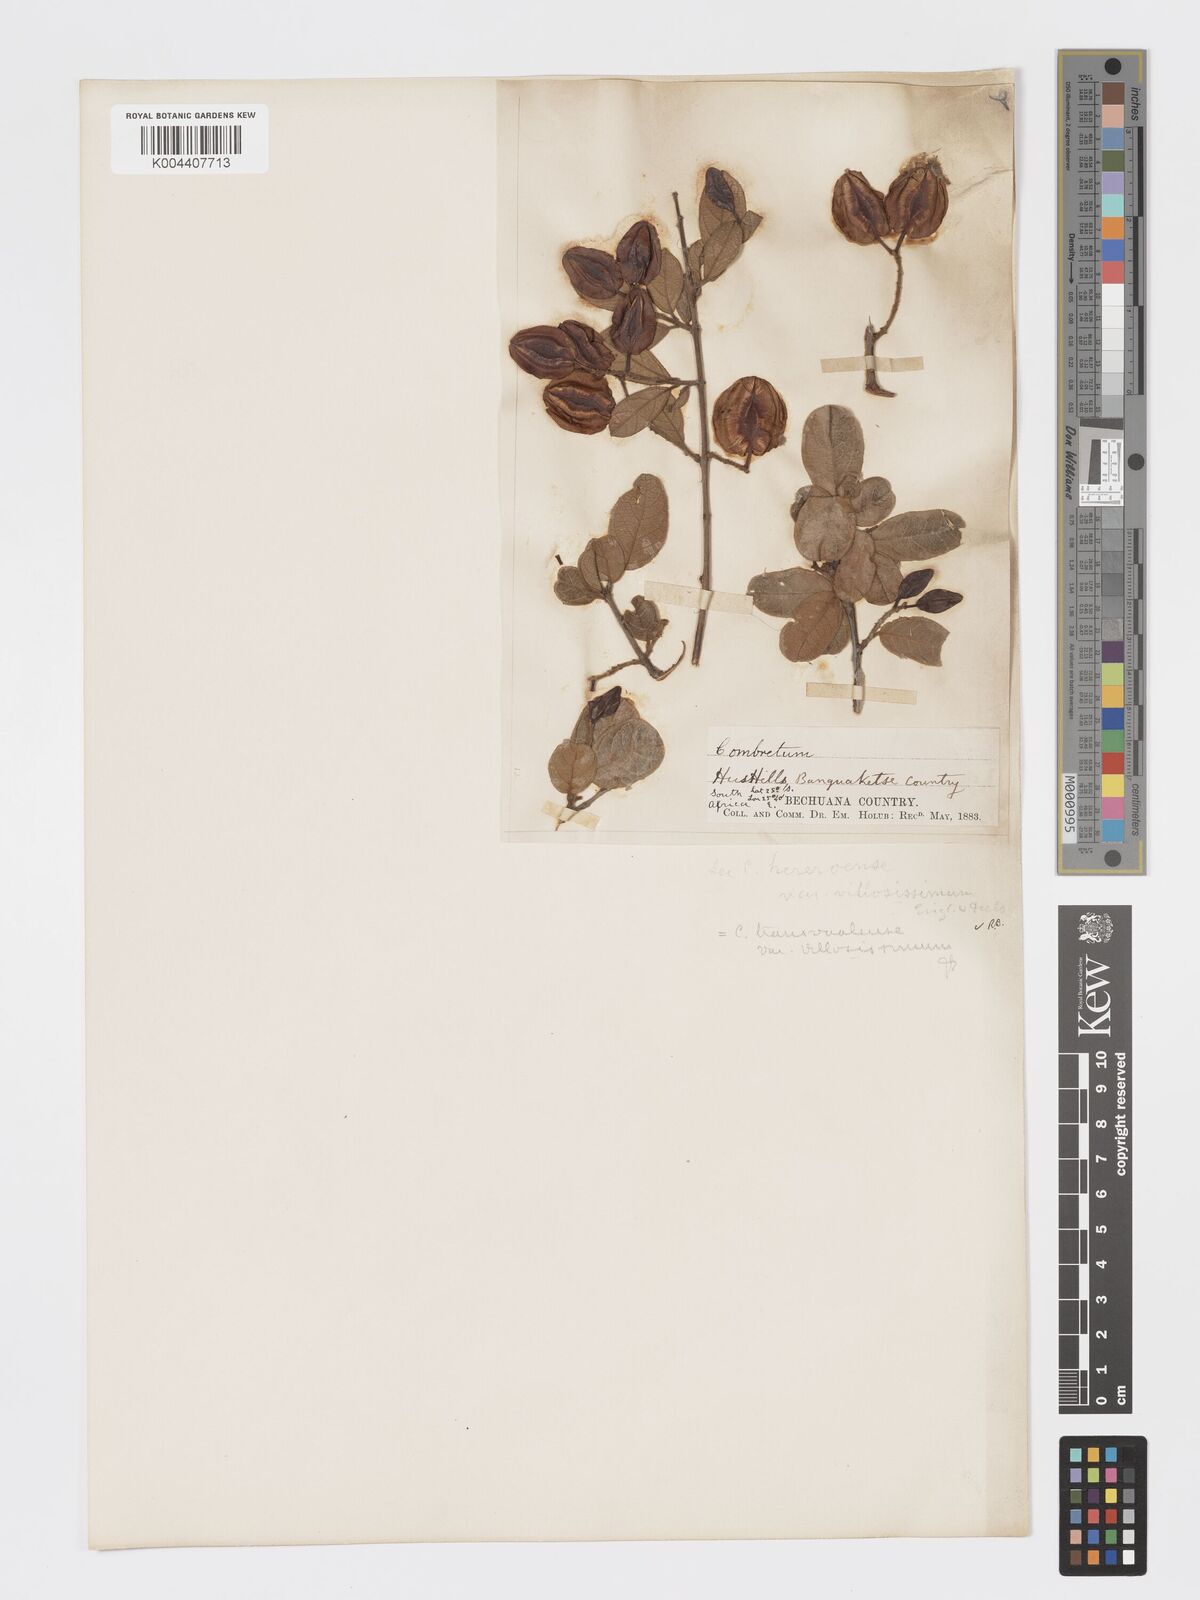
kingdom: Plantae
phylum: Tracheophyta
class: Magnoliopsida
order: Myrtales
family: Combretaceae
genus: Combretum
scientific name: Combretum hereroense
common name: Russet bushwillow
